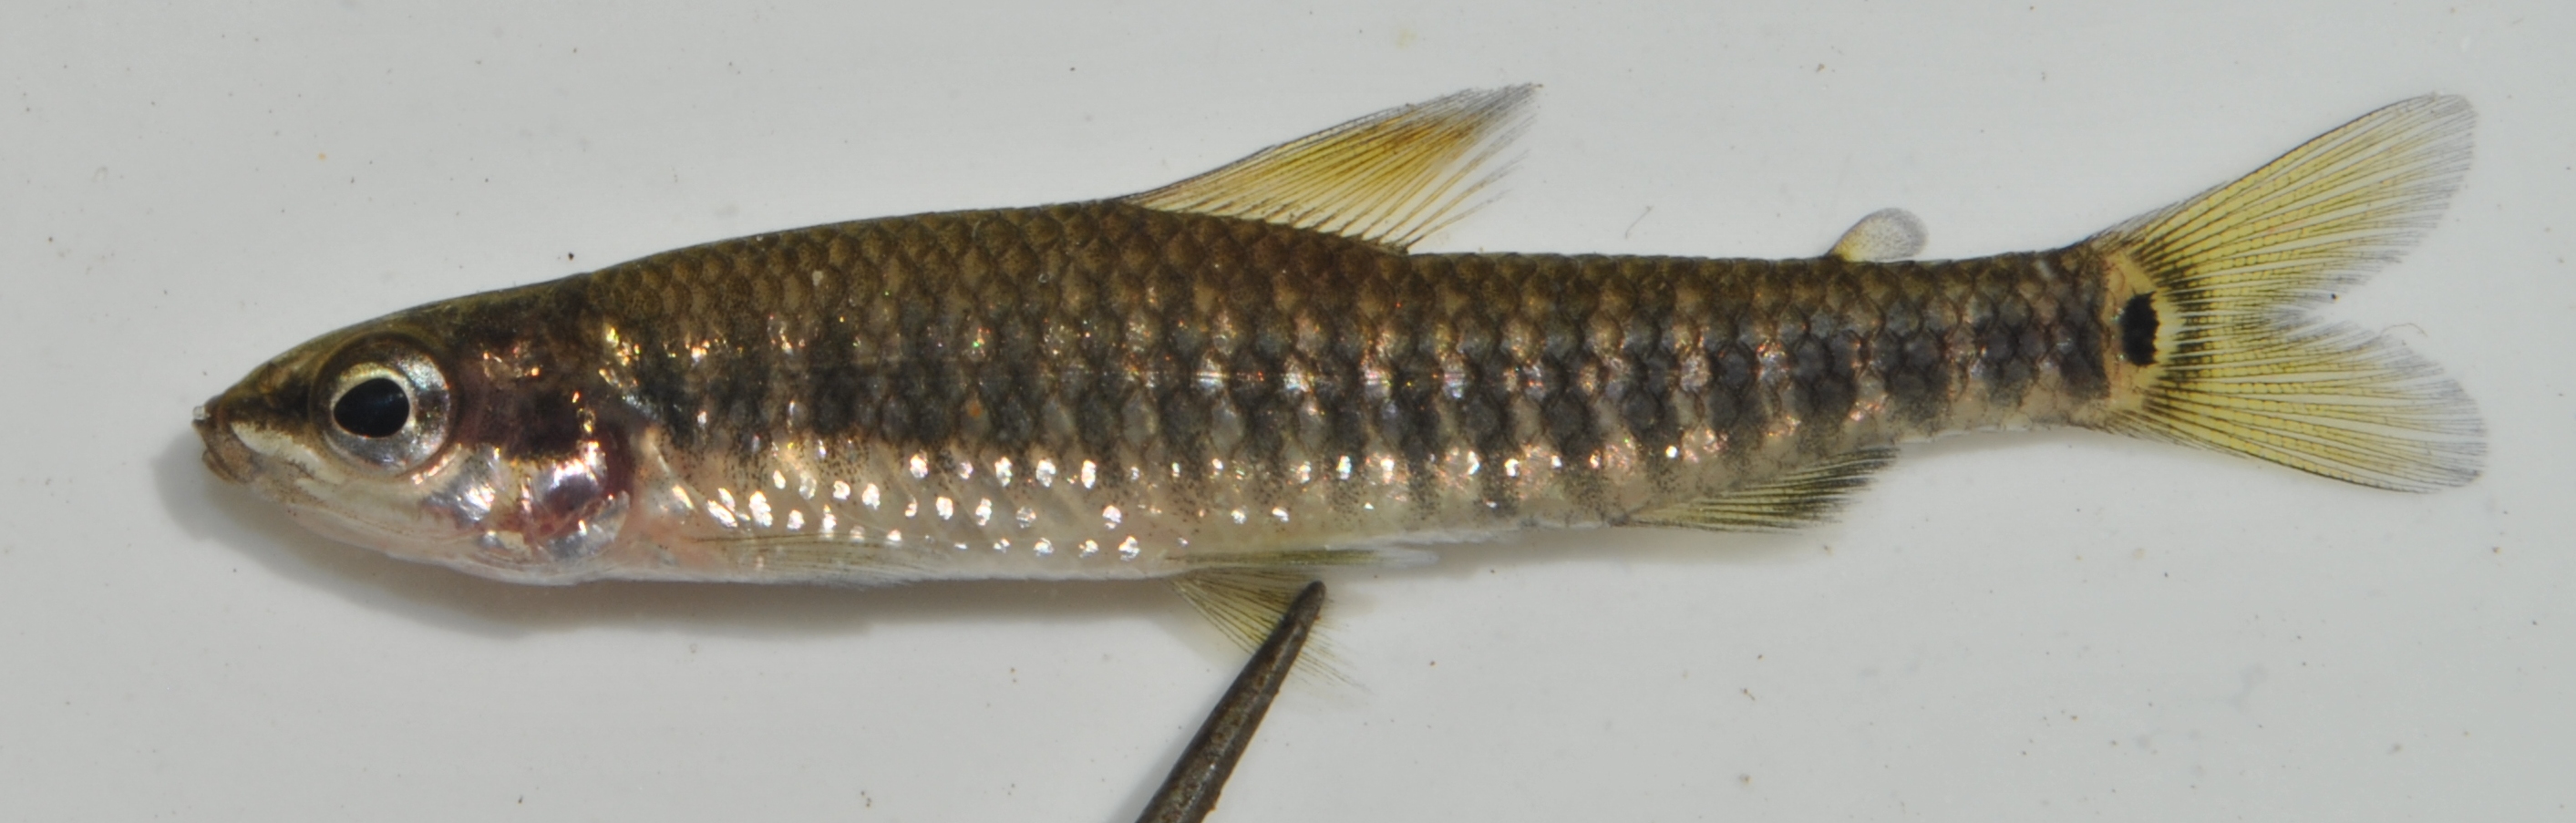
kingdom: Animalia
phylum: Chordata
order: Characiformes
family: Distichodontidae
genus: Nannocharax
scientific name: Nannocharax multifasciatus
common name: Multibar citharine
